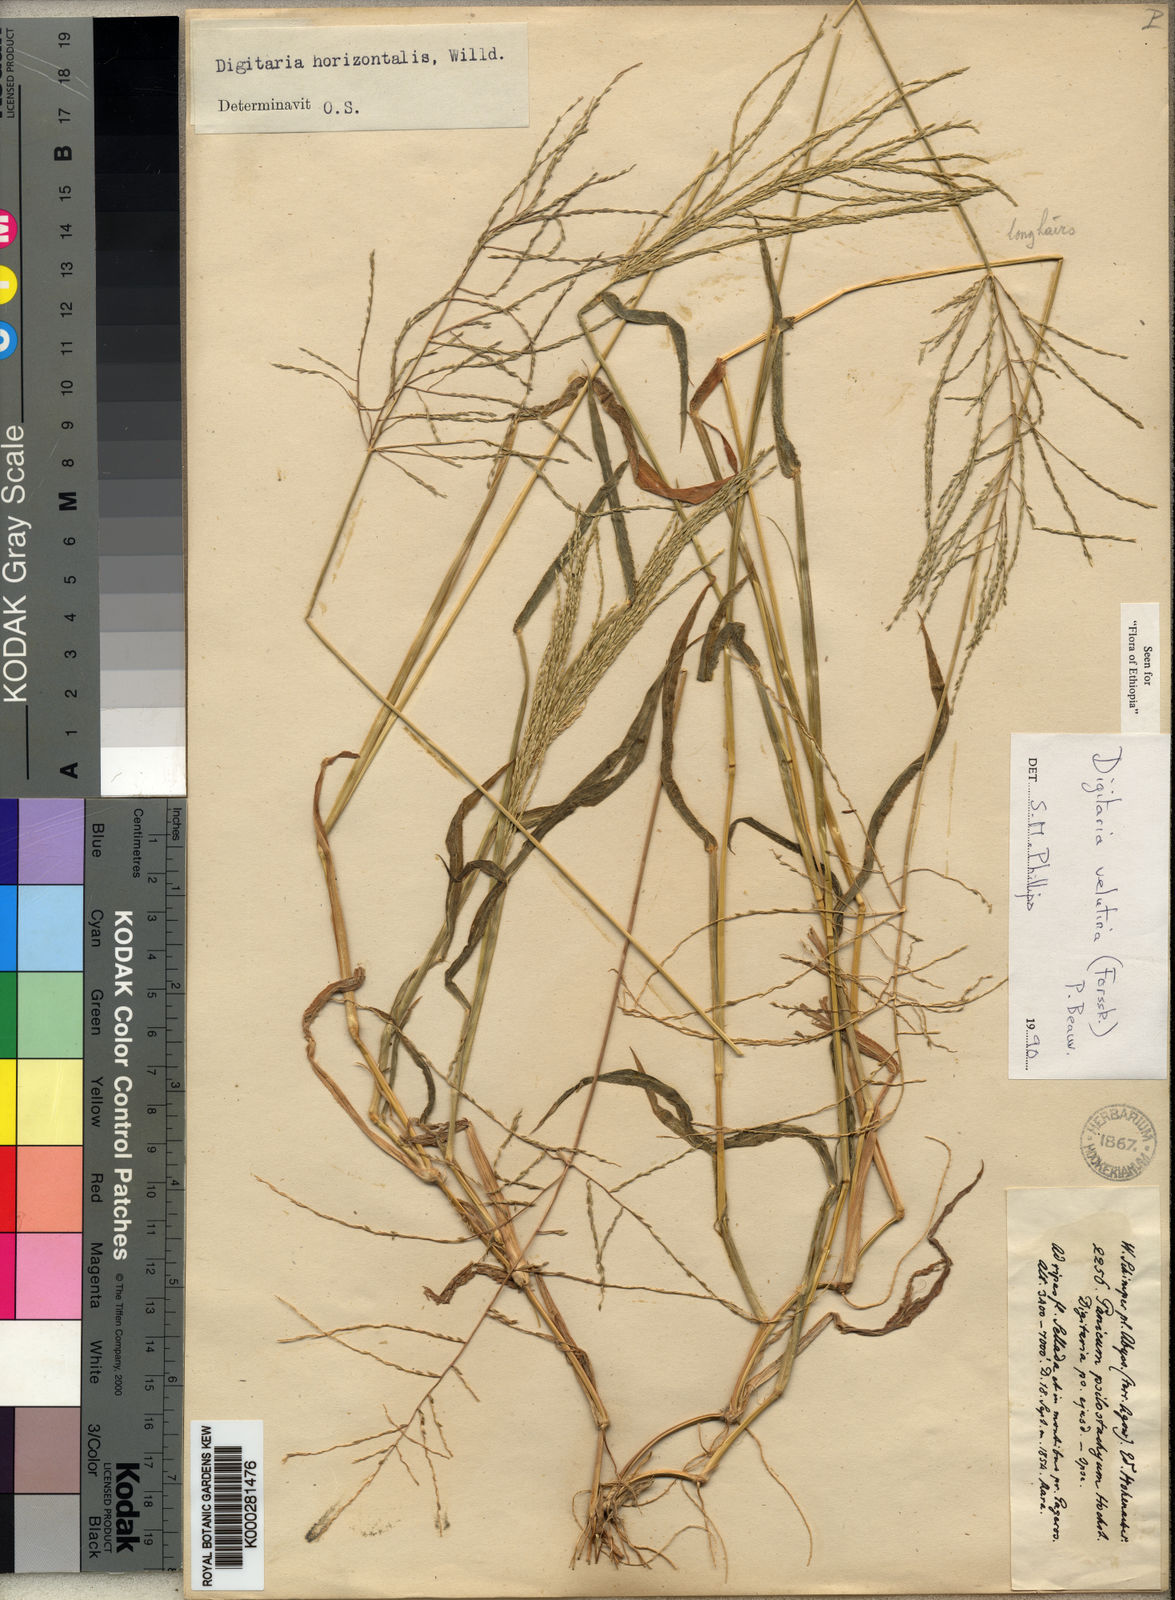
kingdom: Plantae
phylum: Tracheophyta
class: Liliopsida
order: Poales
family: Poaceae
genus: Digitaria
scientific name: Digitaria velutina
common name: Long-plume finger grass
